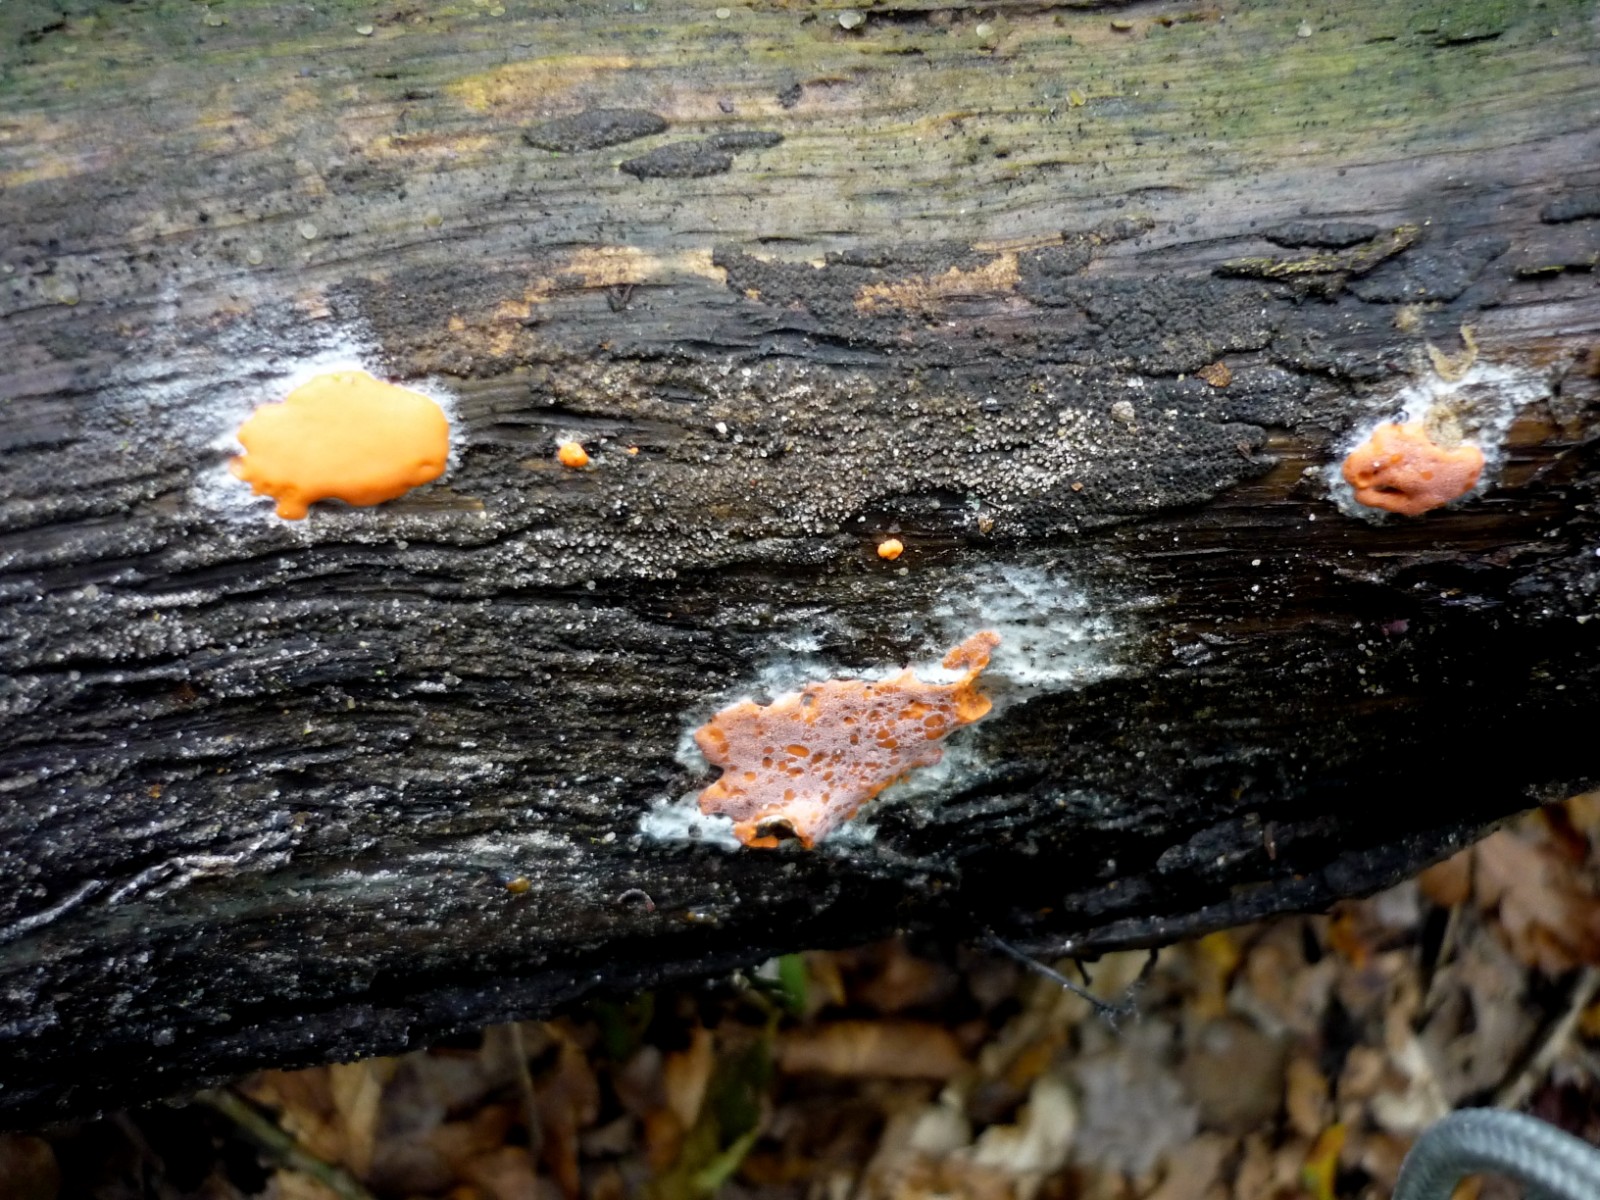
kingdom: Protozoa
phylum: Mycetozoa
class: Myxomycetes
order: Trichiales
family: Dictydiaethaliaceae
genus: Dictydiaethalium
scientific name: Dictydiaethalium plumbeum
